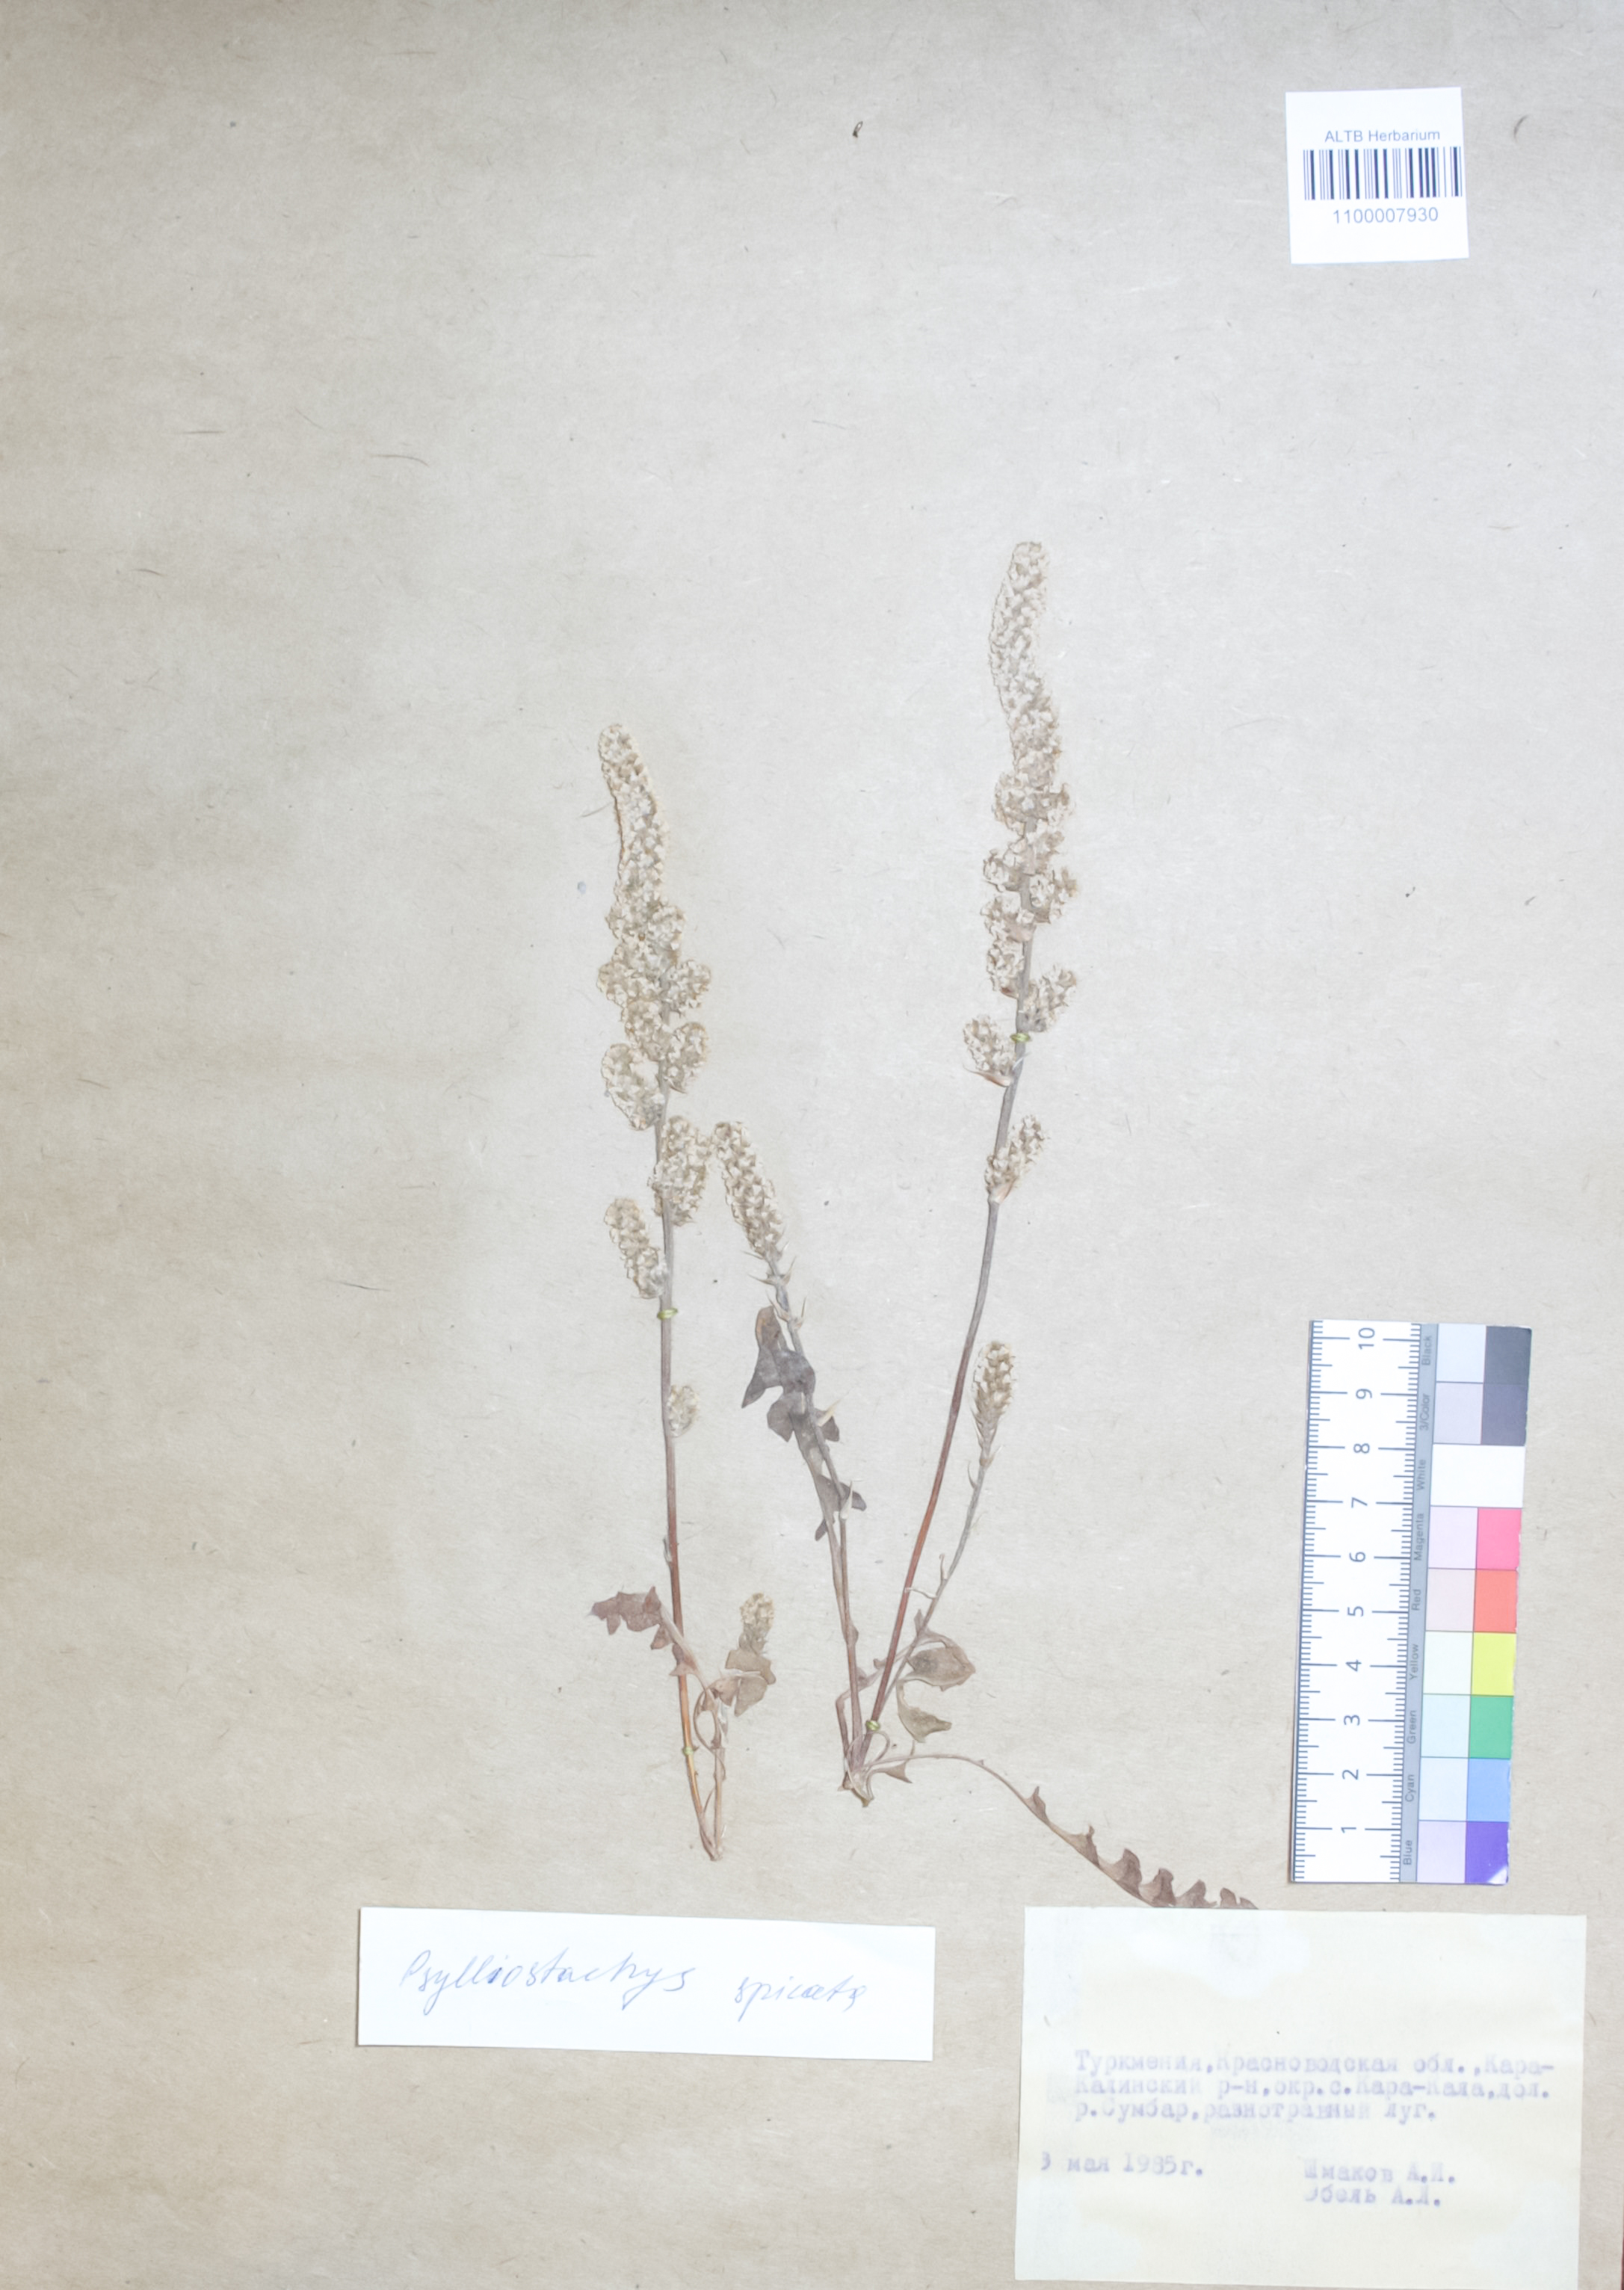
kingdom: Plantae
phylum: Tracheophyta
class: Magnoliopsida
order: Caryophyllales
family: Plumbaginaceae
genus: Psylliostachys
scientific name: Psylliostachys spicatus
